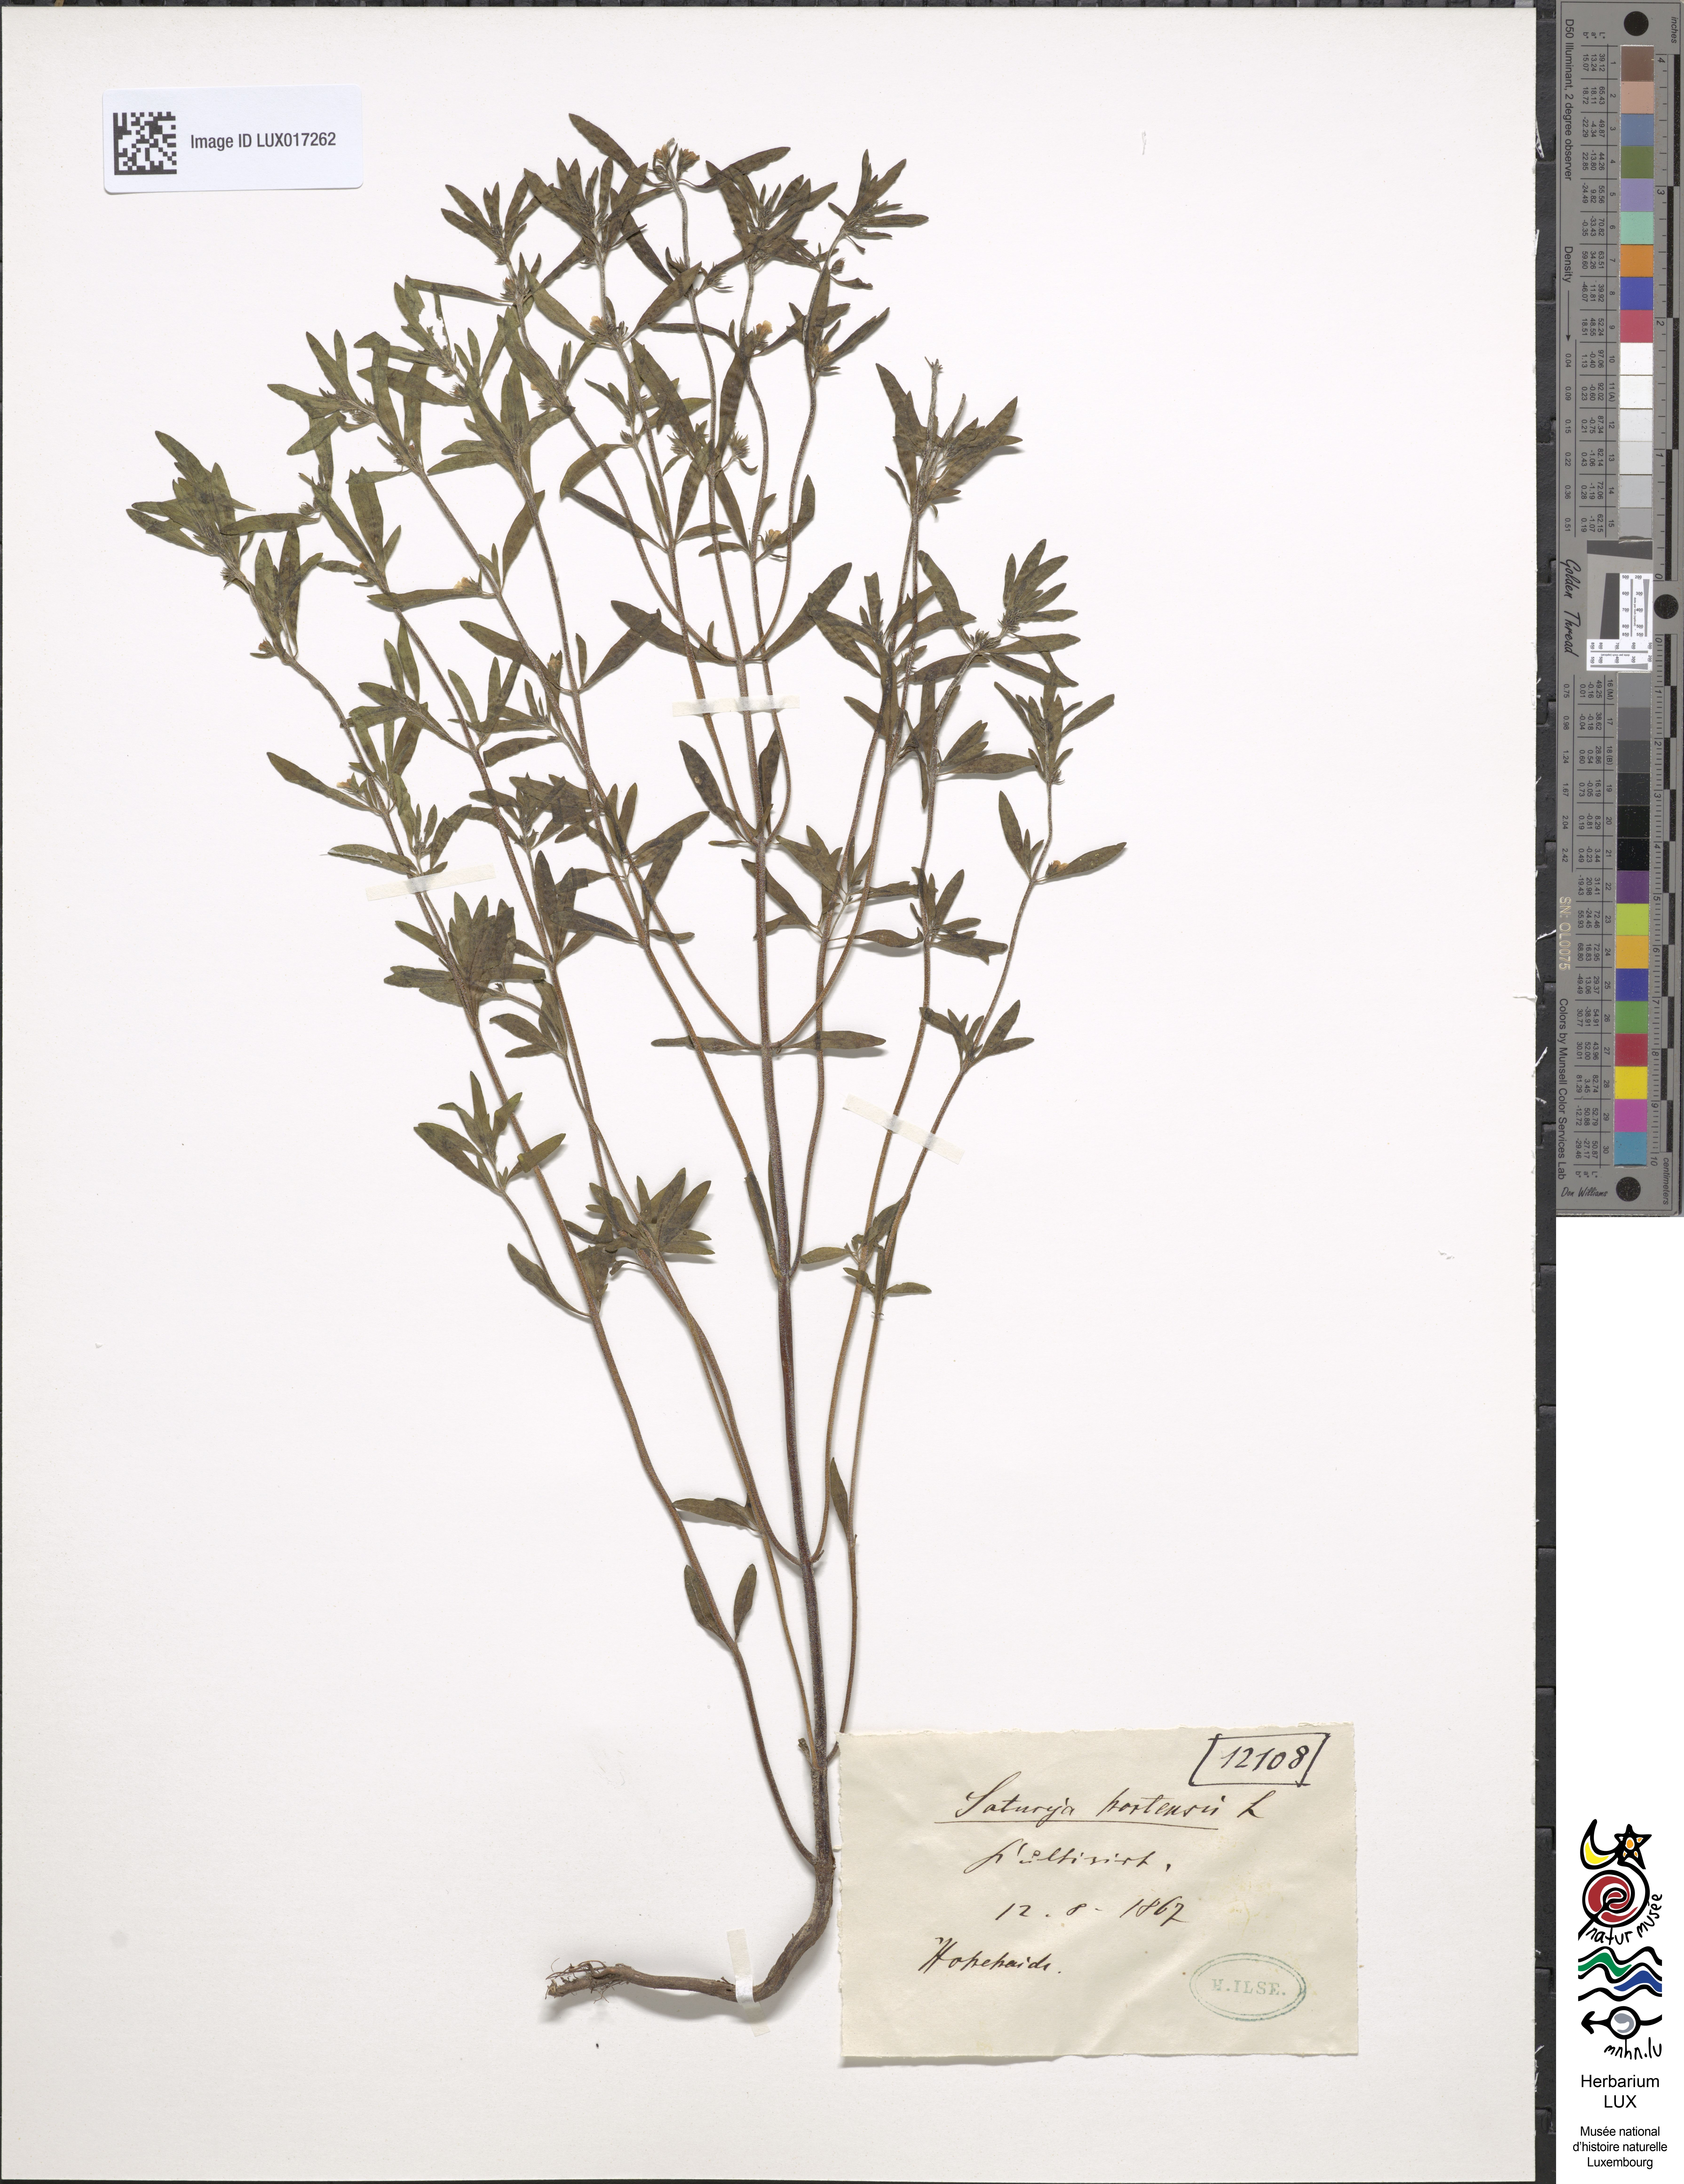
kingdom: Plantae
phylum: Tracheophyta
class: Magnoliopsida
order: Lamiales
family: Lamiaceae
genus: Satureja
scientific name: Satureja hortensis
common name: Summer savory
